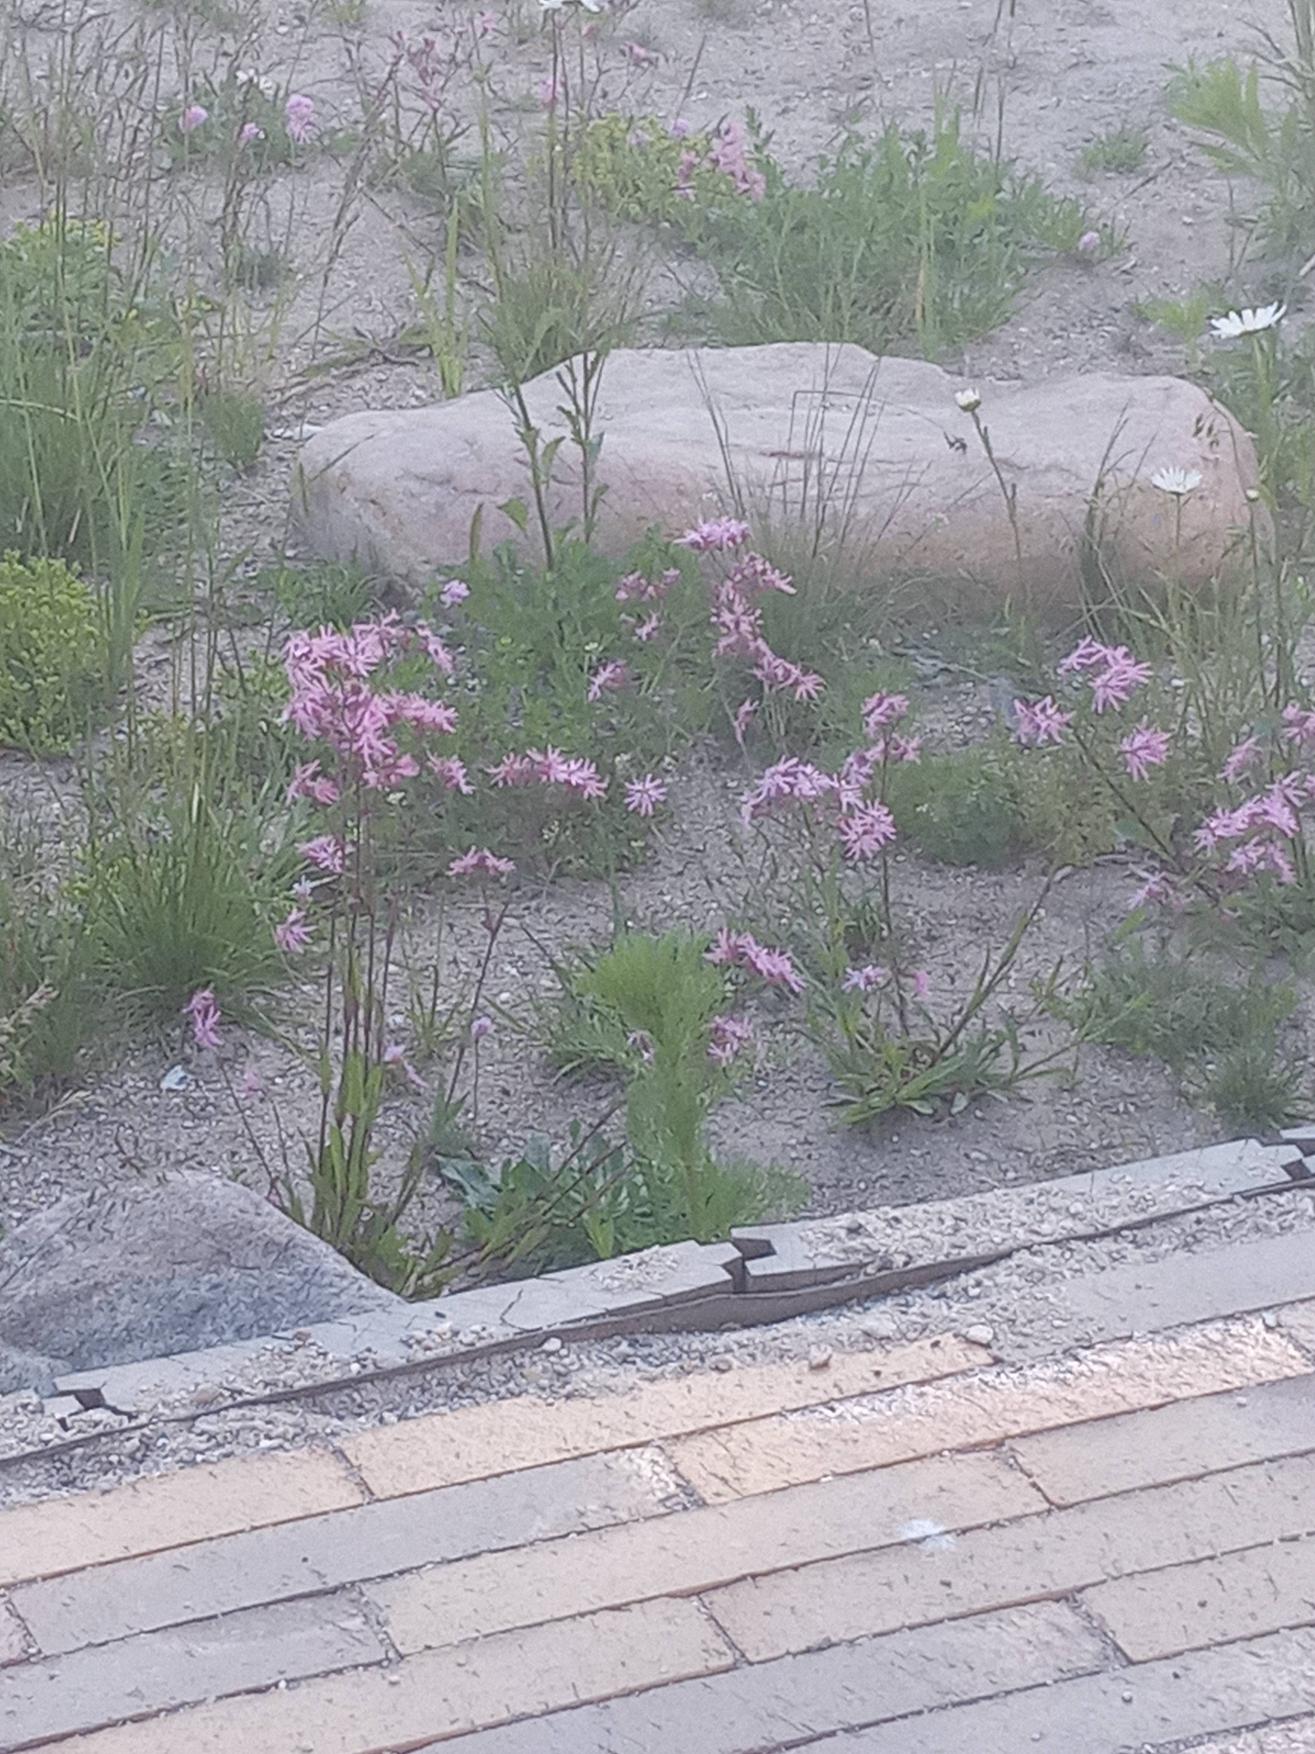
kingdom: Plantae
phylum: Tracheophyta
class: Magnoliopsida
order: Caryophyllales
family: Caryophyllaceae
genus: Silene
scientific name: Silene flos-cuculi
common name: Trævlekrone
